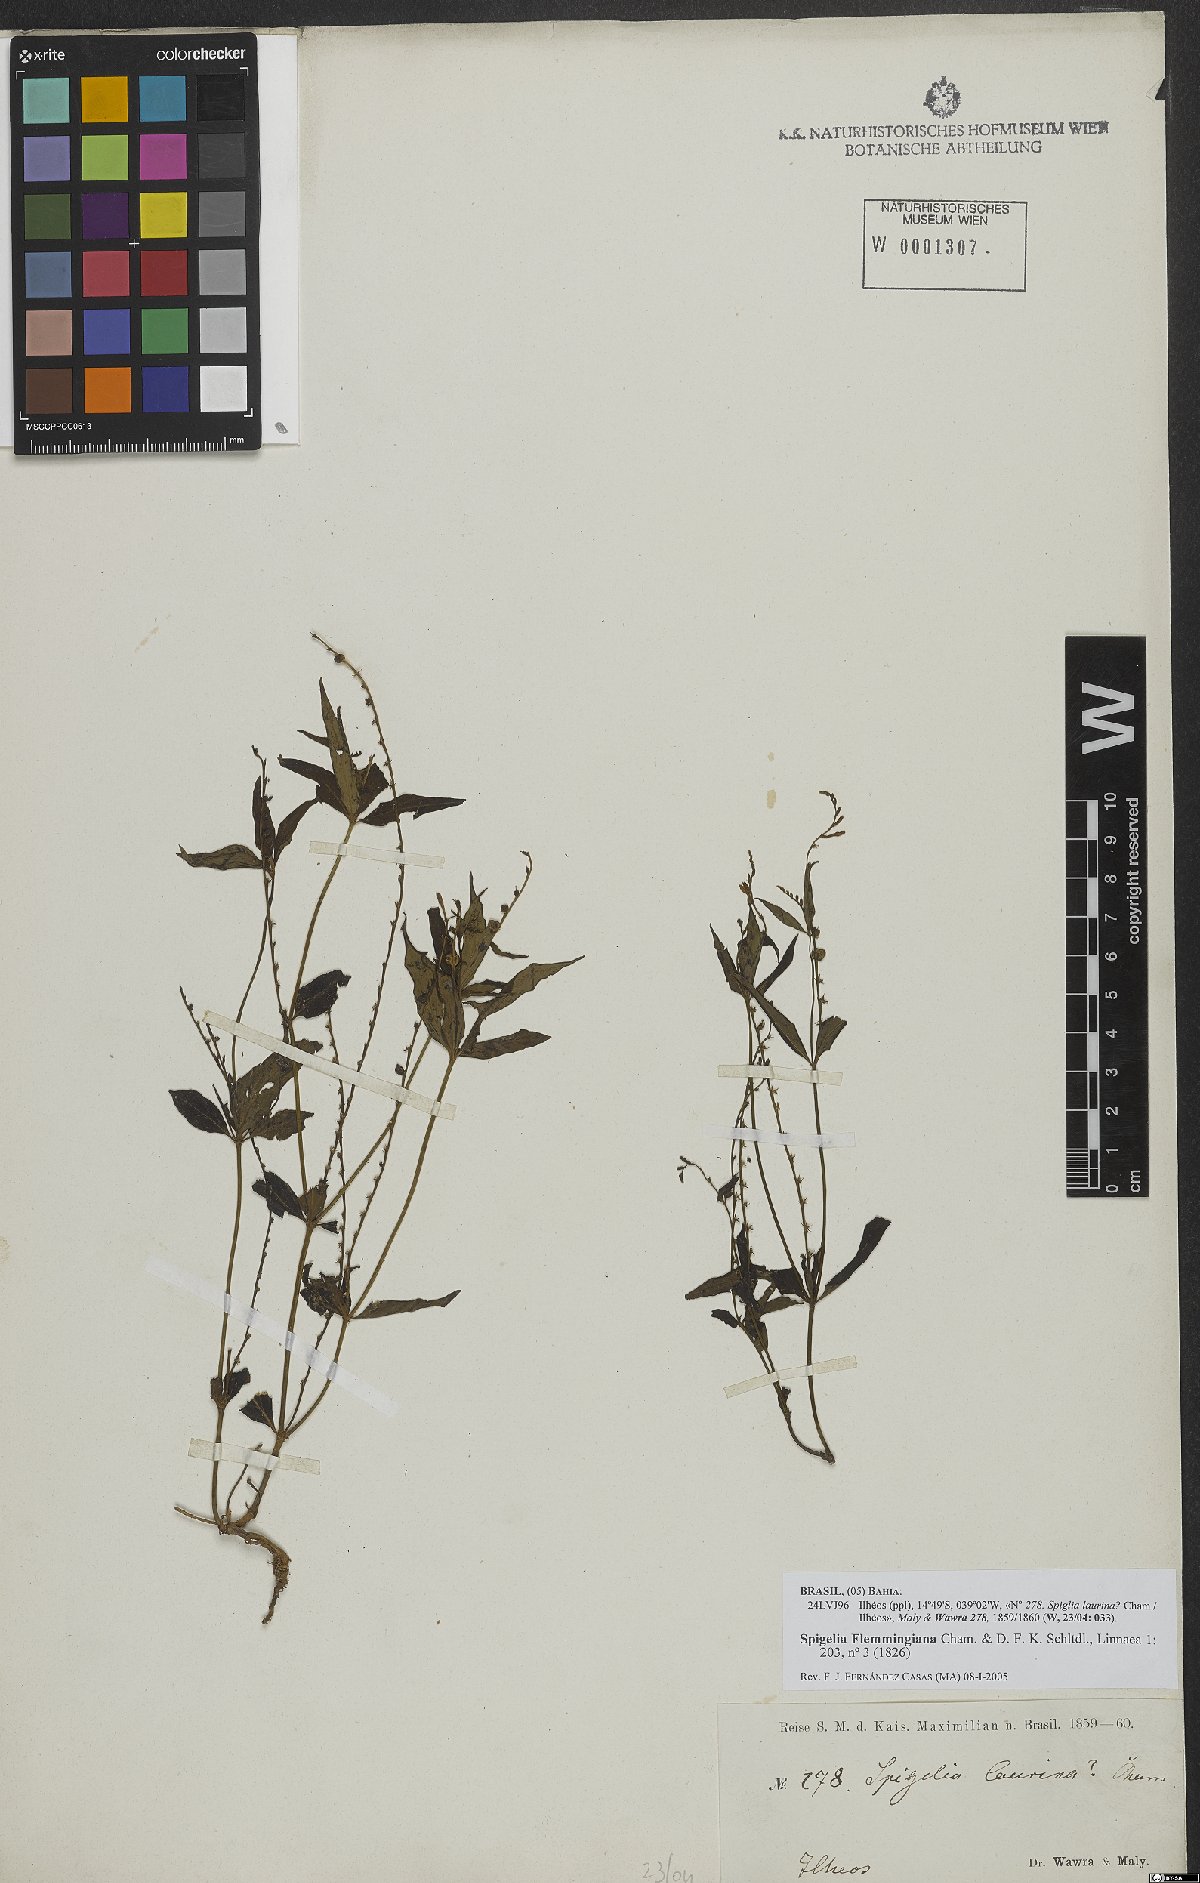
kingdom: Plantae
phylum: Tracheophyta
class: Magnoliopsida
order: Gentianales
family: Loganiaceae
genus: Spigelia
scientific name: Spigelia flemmingiana
